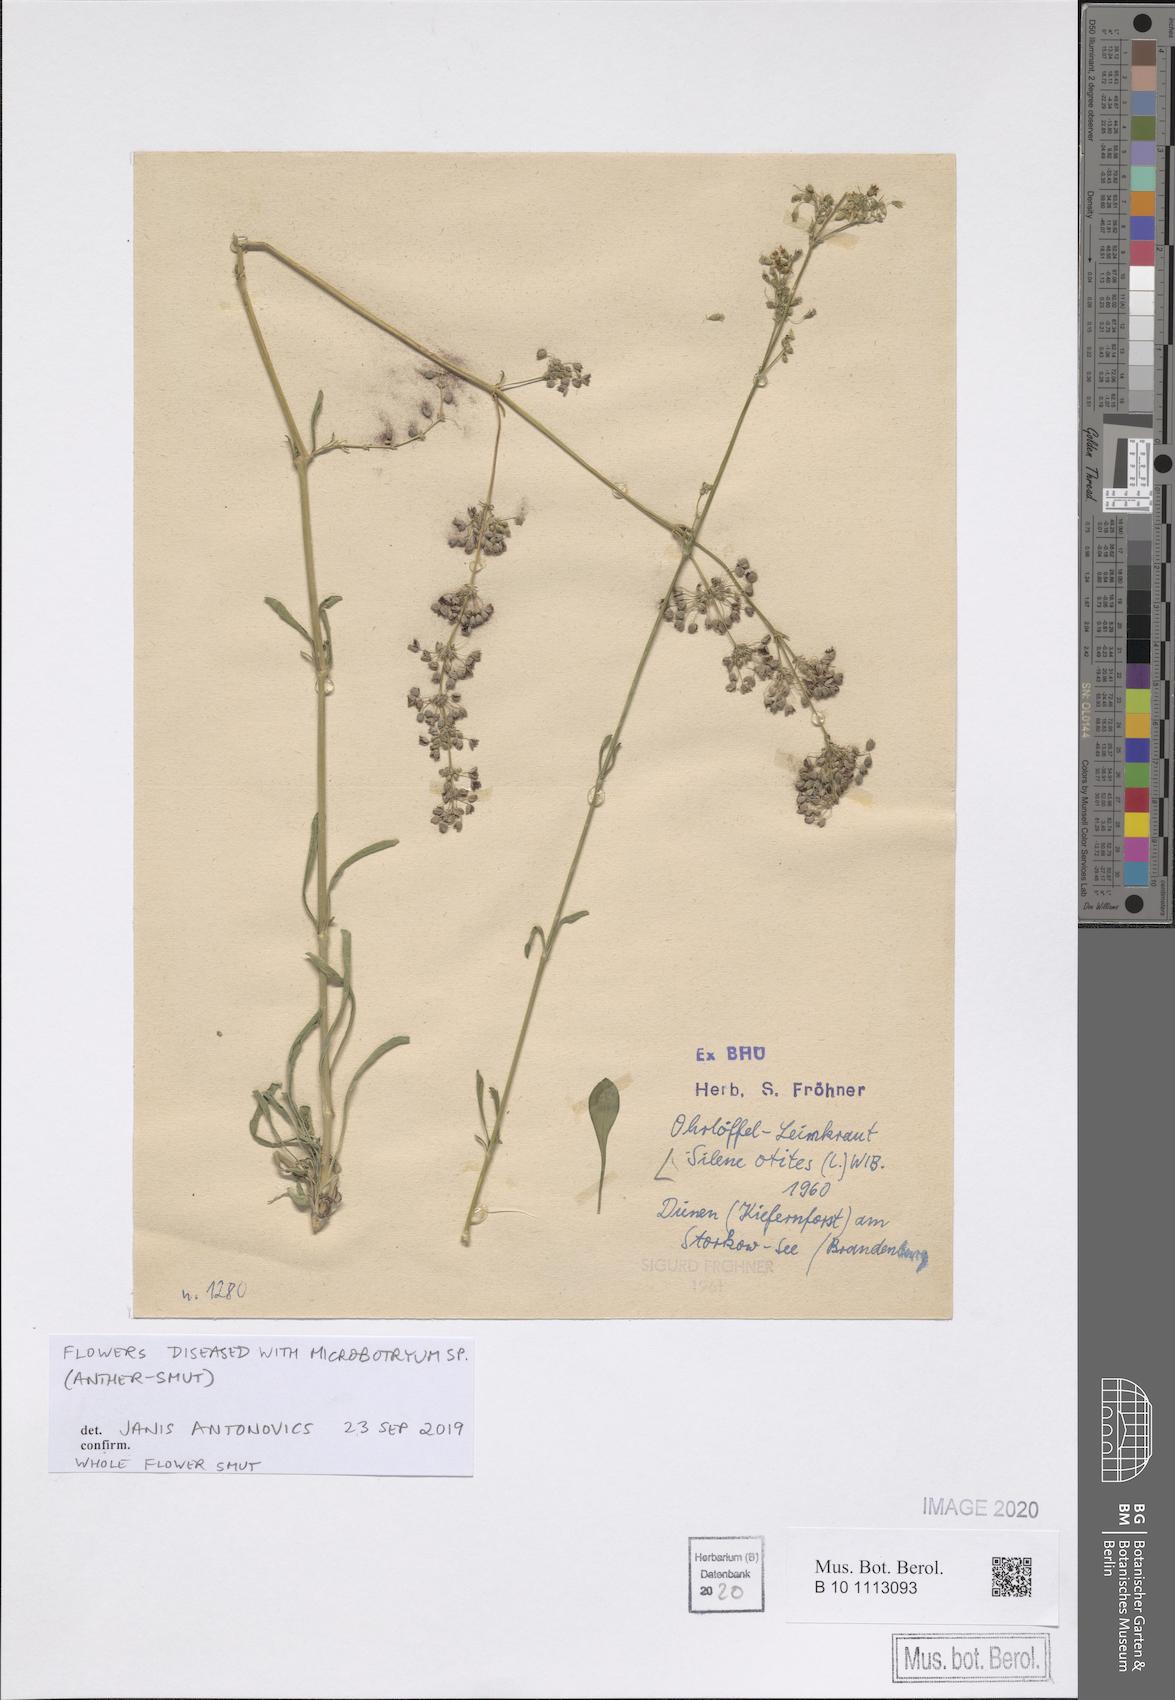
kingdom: Plantae
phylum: Tracheophyta
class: Magnoliopsida
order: Caryophyllales
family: Caryophyllaceae
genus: Silene
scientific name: Silene otites
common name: Spanish catchfly
